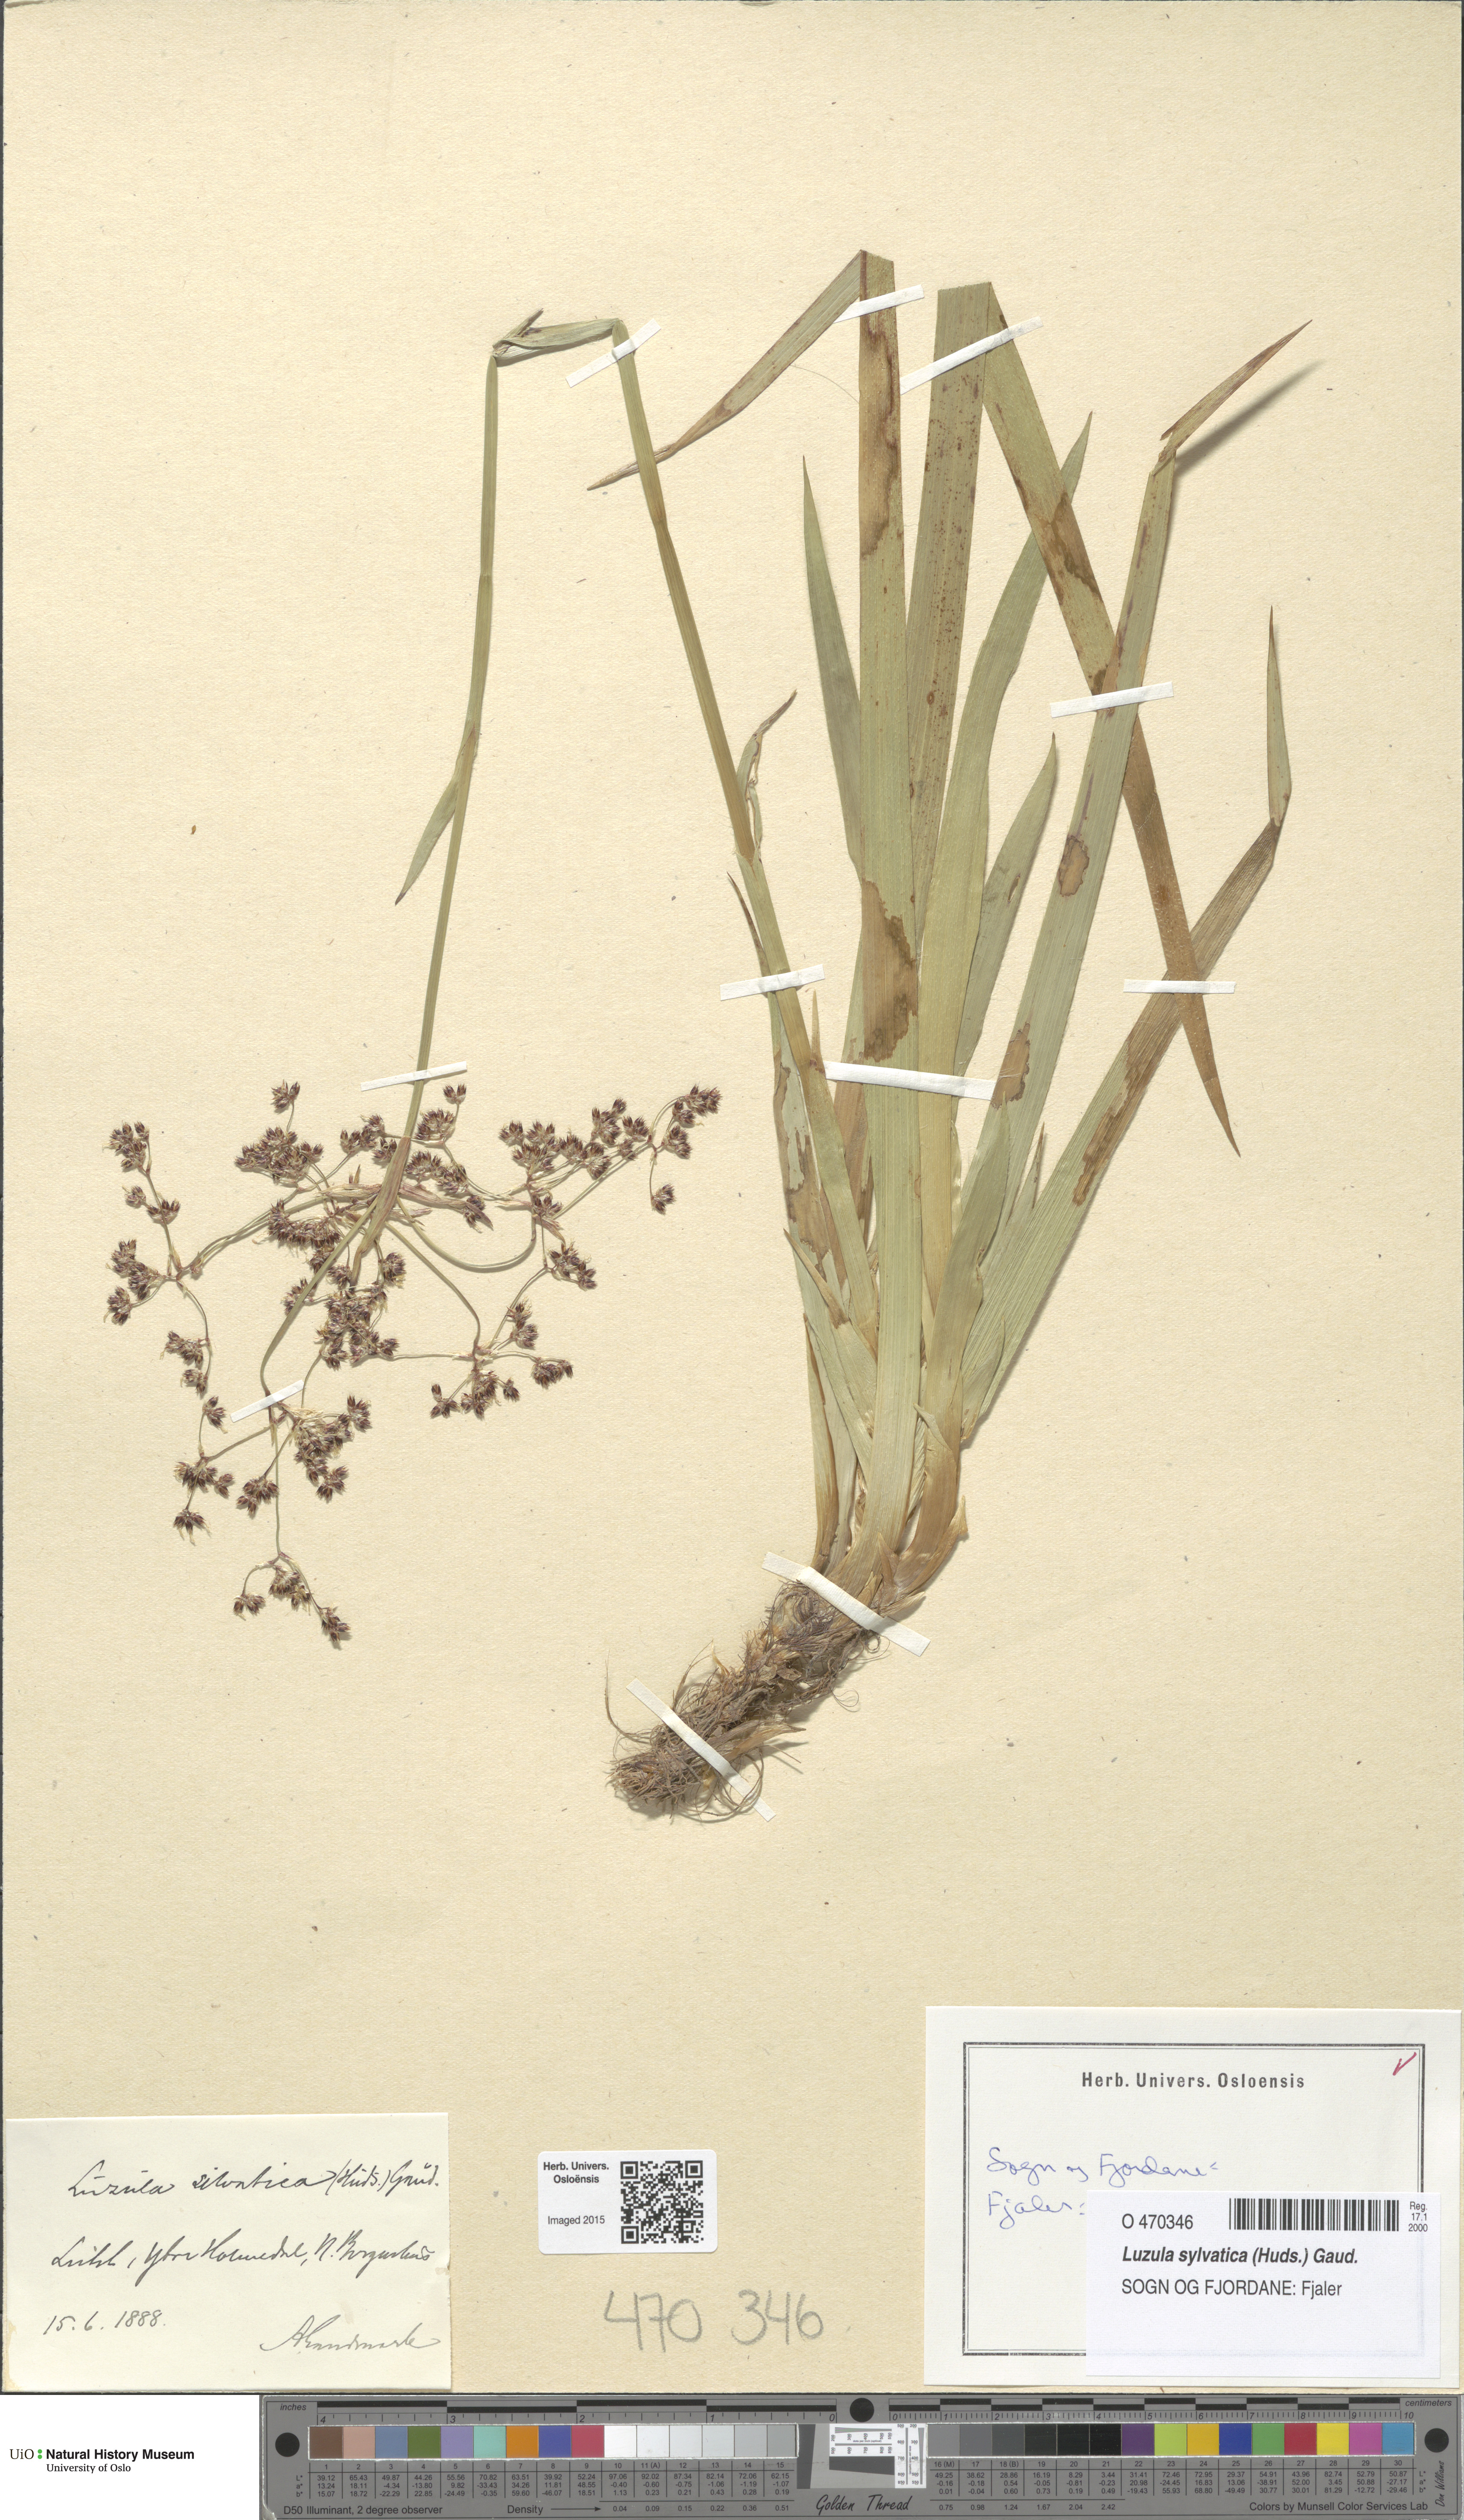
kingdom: Plantae
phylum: Tracheophyta
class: Liliopsida
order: Poales
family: Juncaceae
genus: Luzula
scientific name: Luzula sylvatica
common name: Great wood-rush
